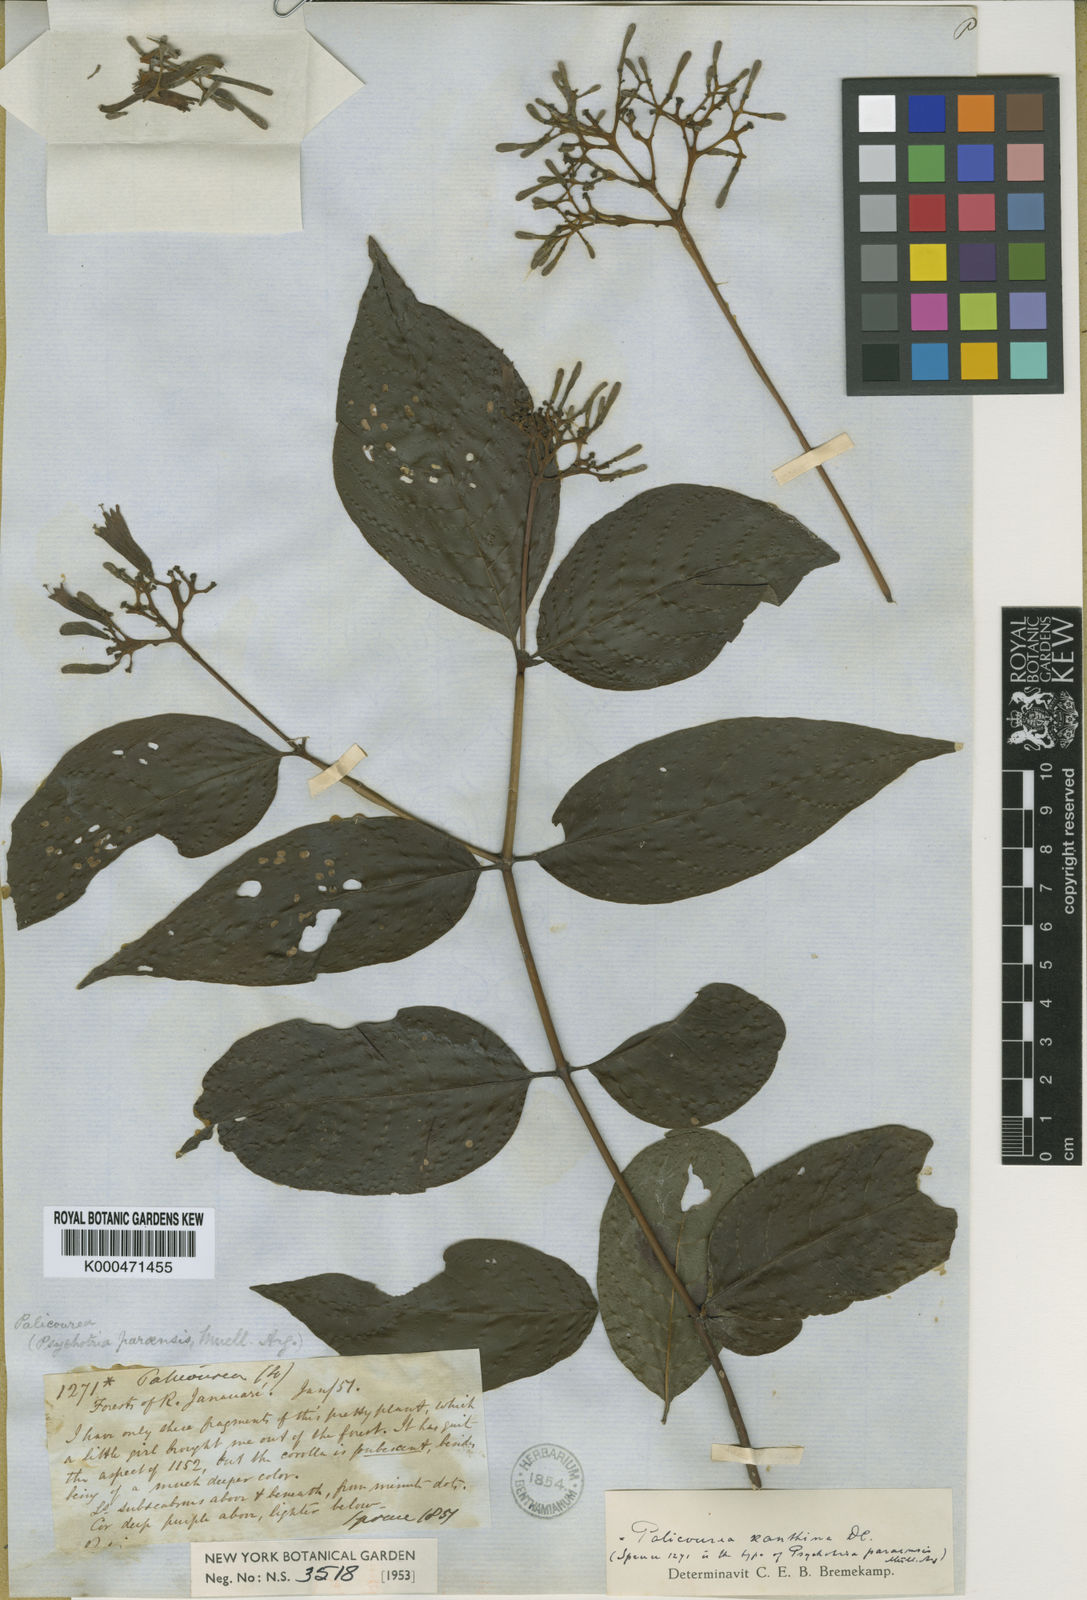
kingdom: Plantae
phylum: Tracheophyta
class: Magnoliopsida
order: Gentianales
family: Rubiaceae
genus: Palicourea
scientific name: Palicourea longiflora
